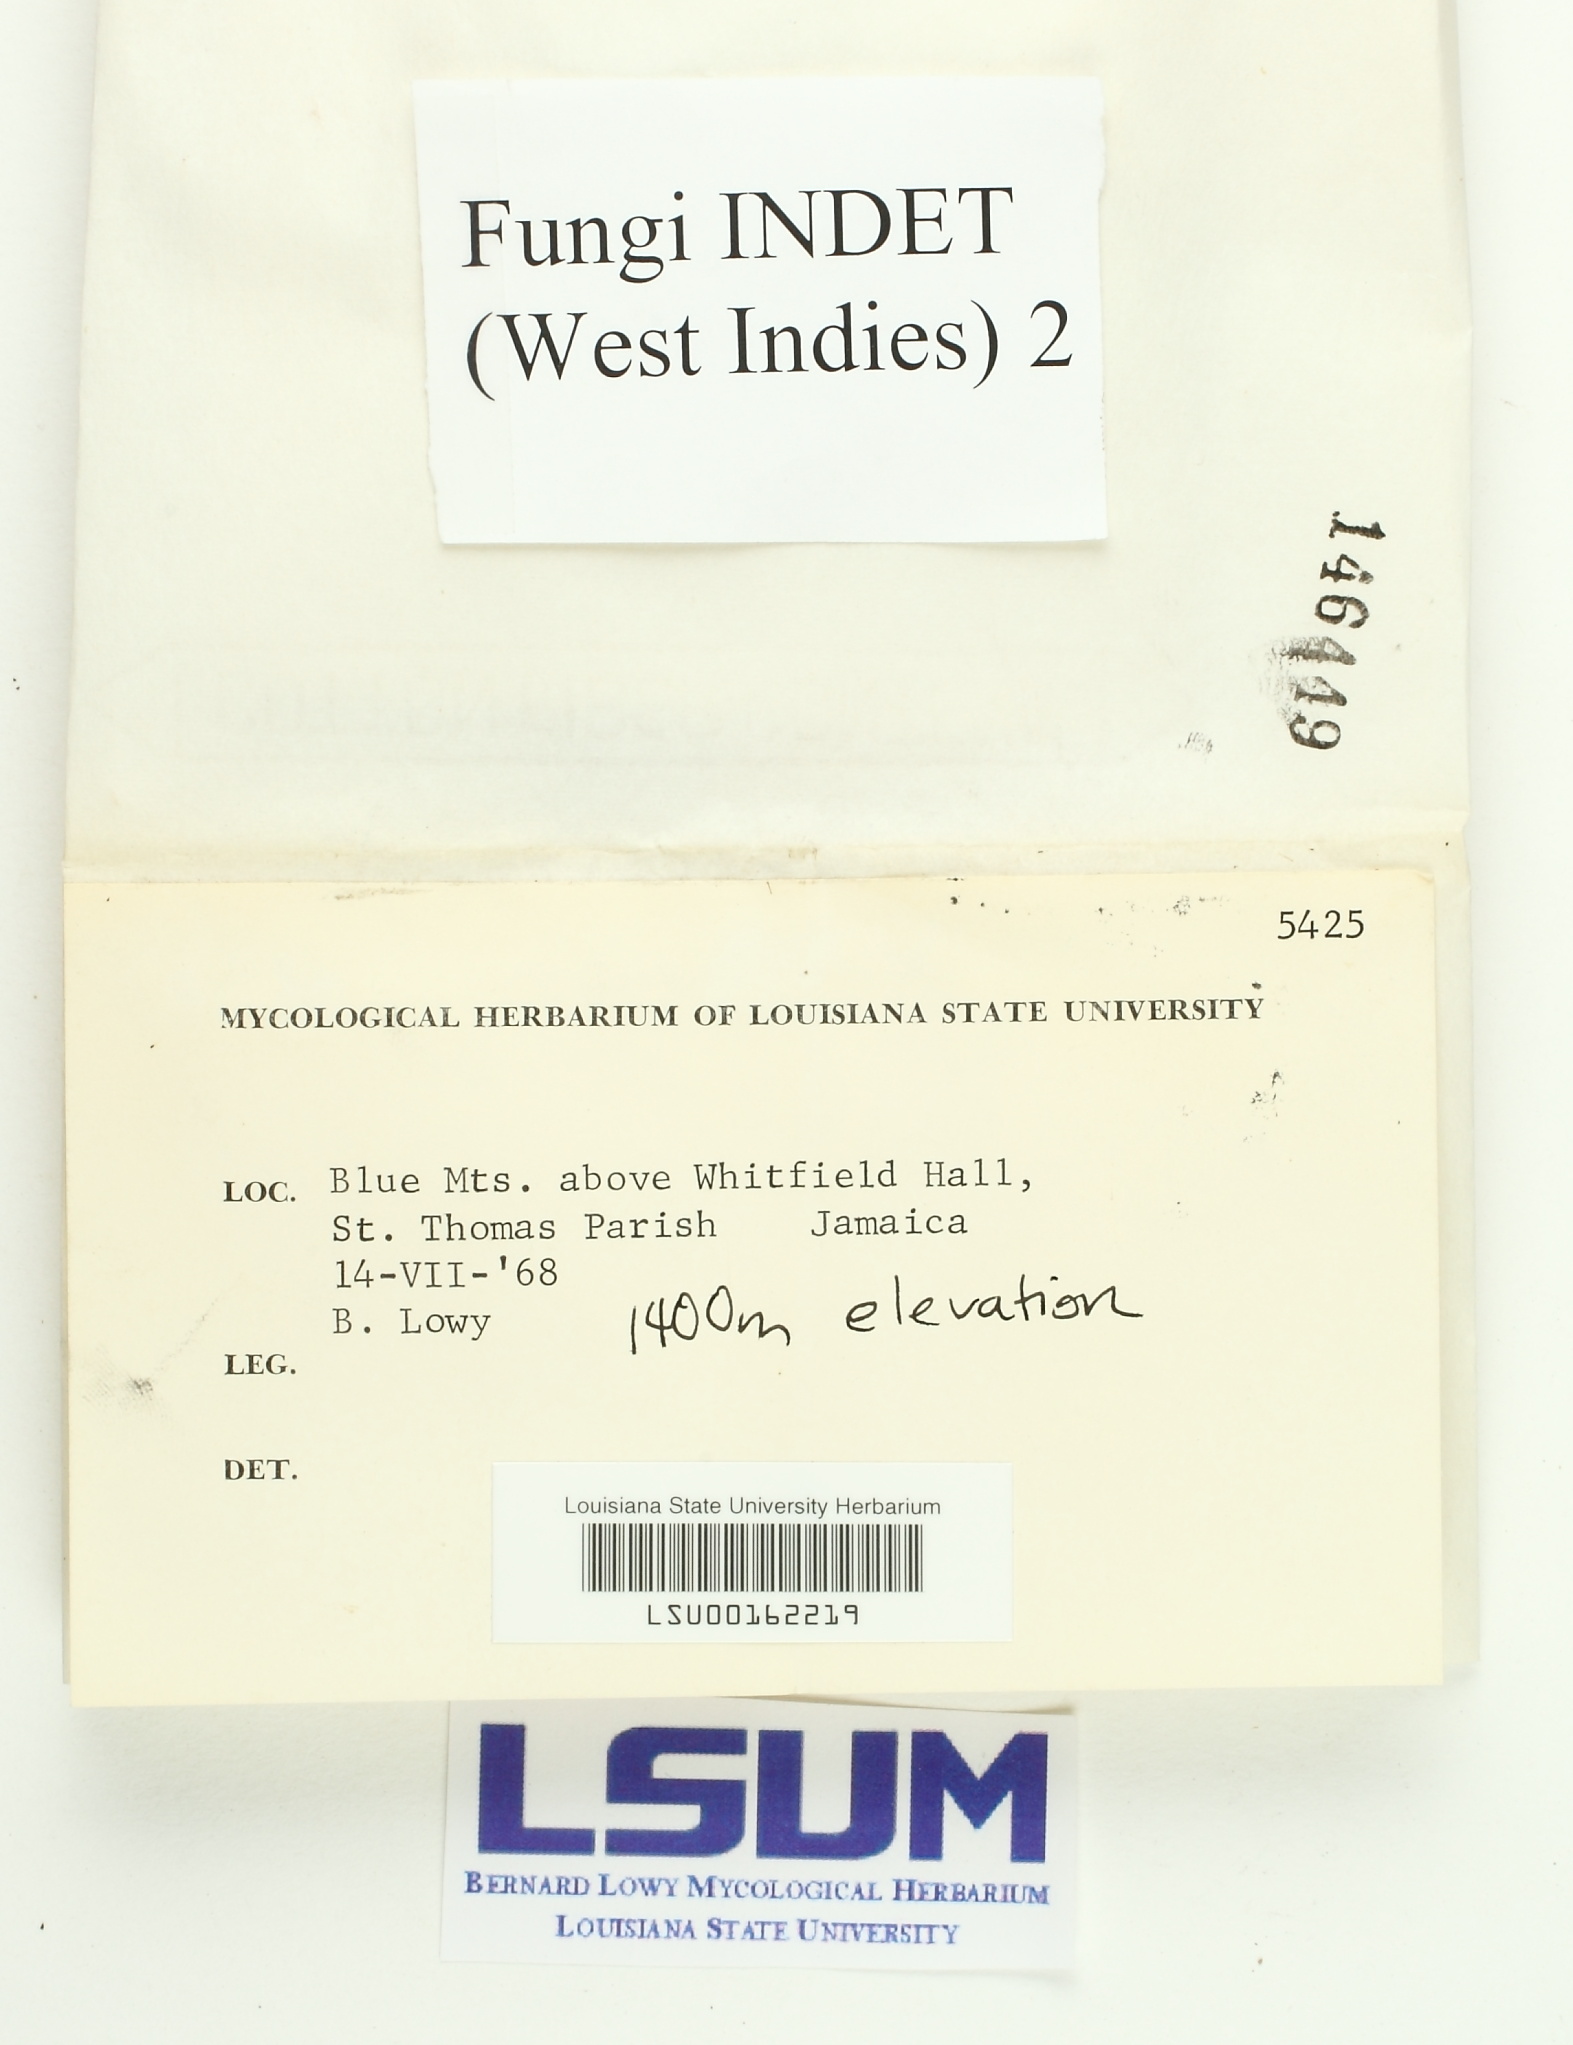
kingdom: Fungi
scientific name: Fungi
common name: Fungi
